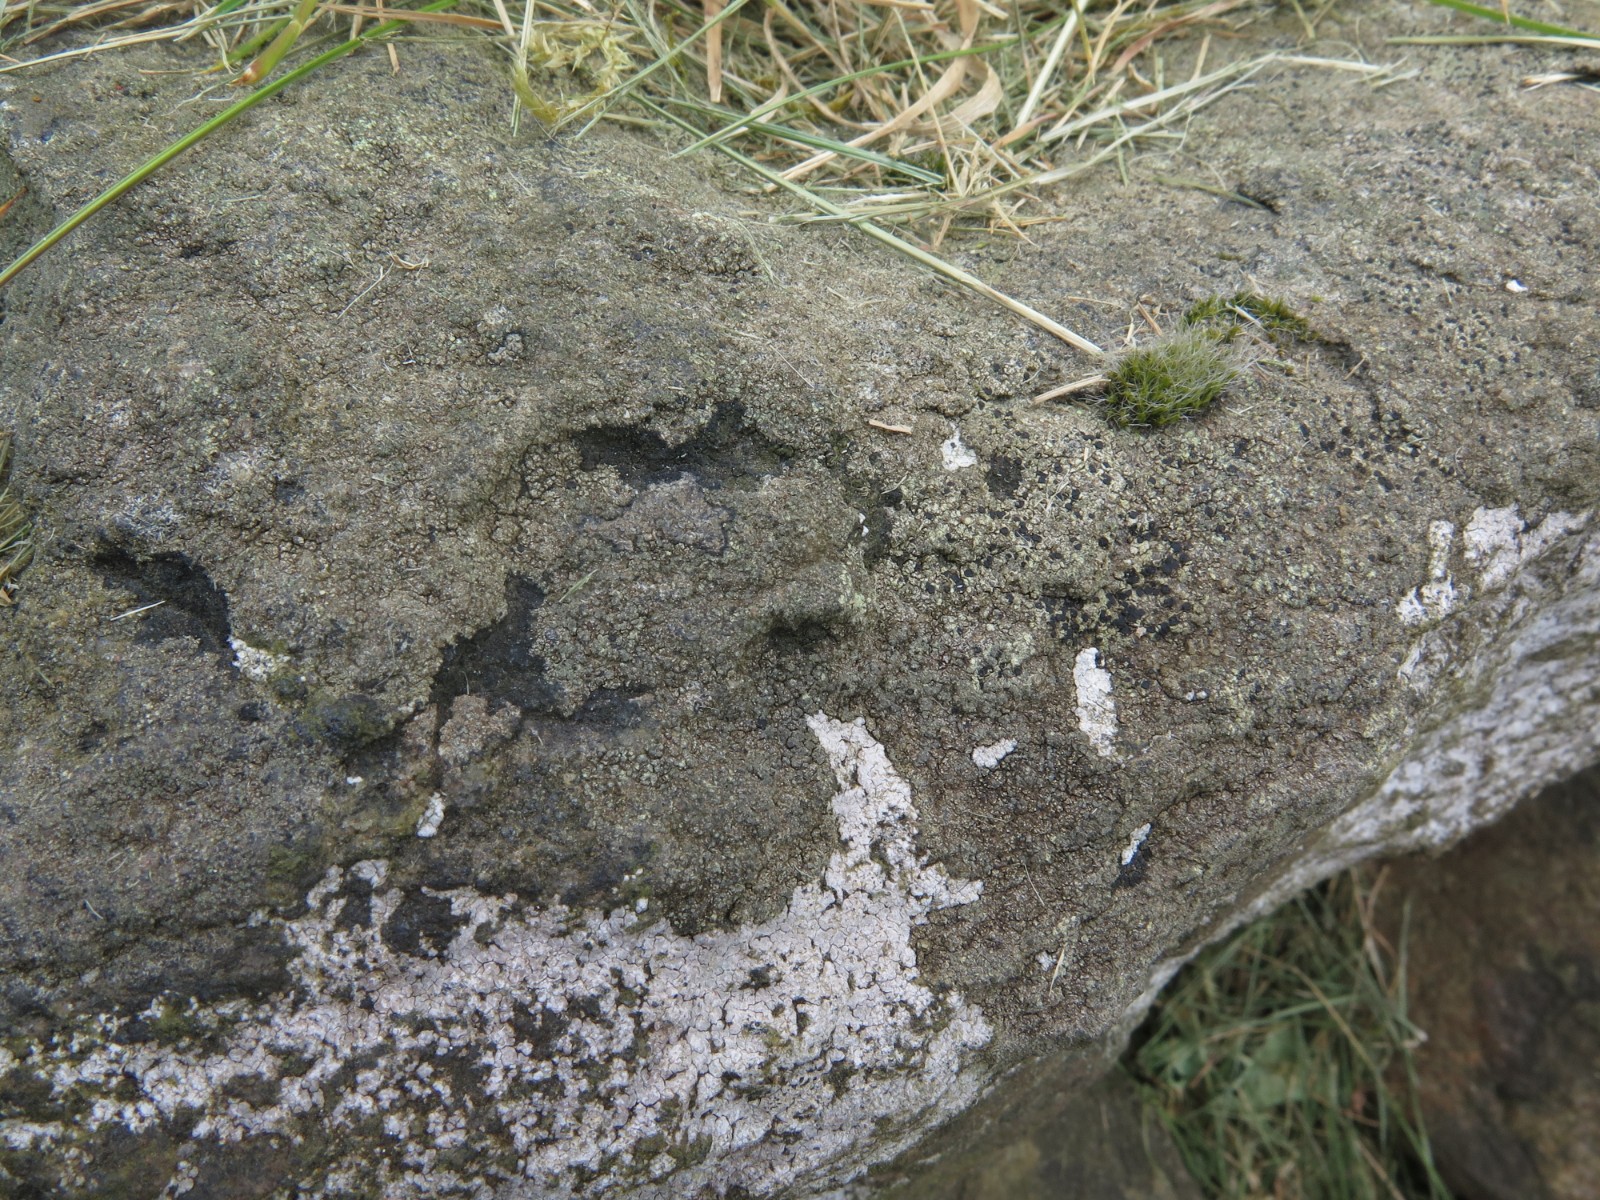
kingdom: Fungi
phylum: Ascomycota
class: Lecanoromycetes
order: Lecanorales
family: Lecanoraceae
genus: Lecidella
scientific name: Lecidella scabra
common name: skurvet skivelav
